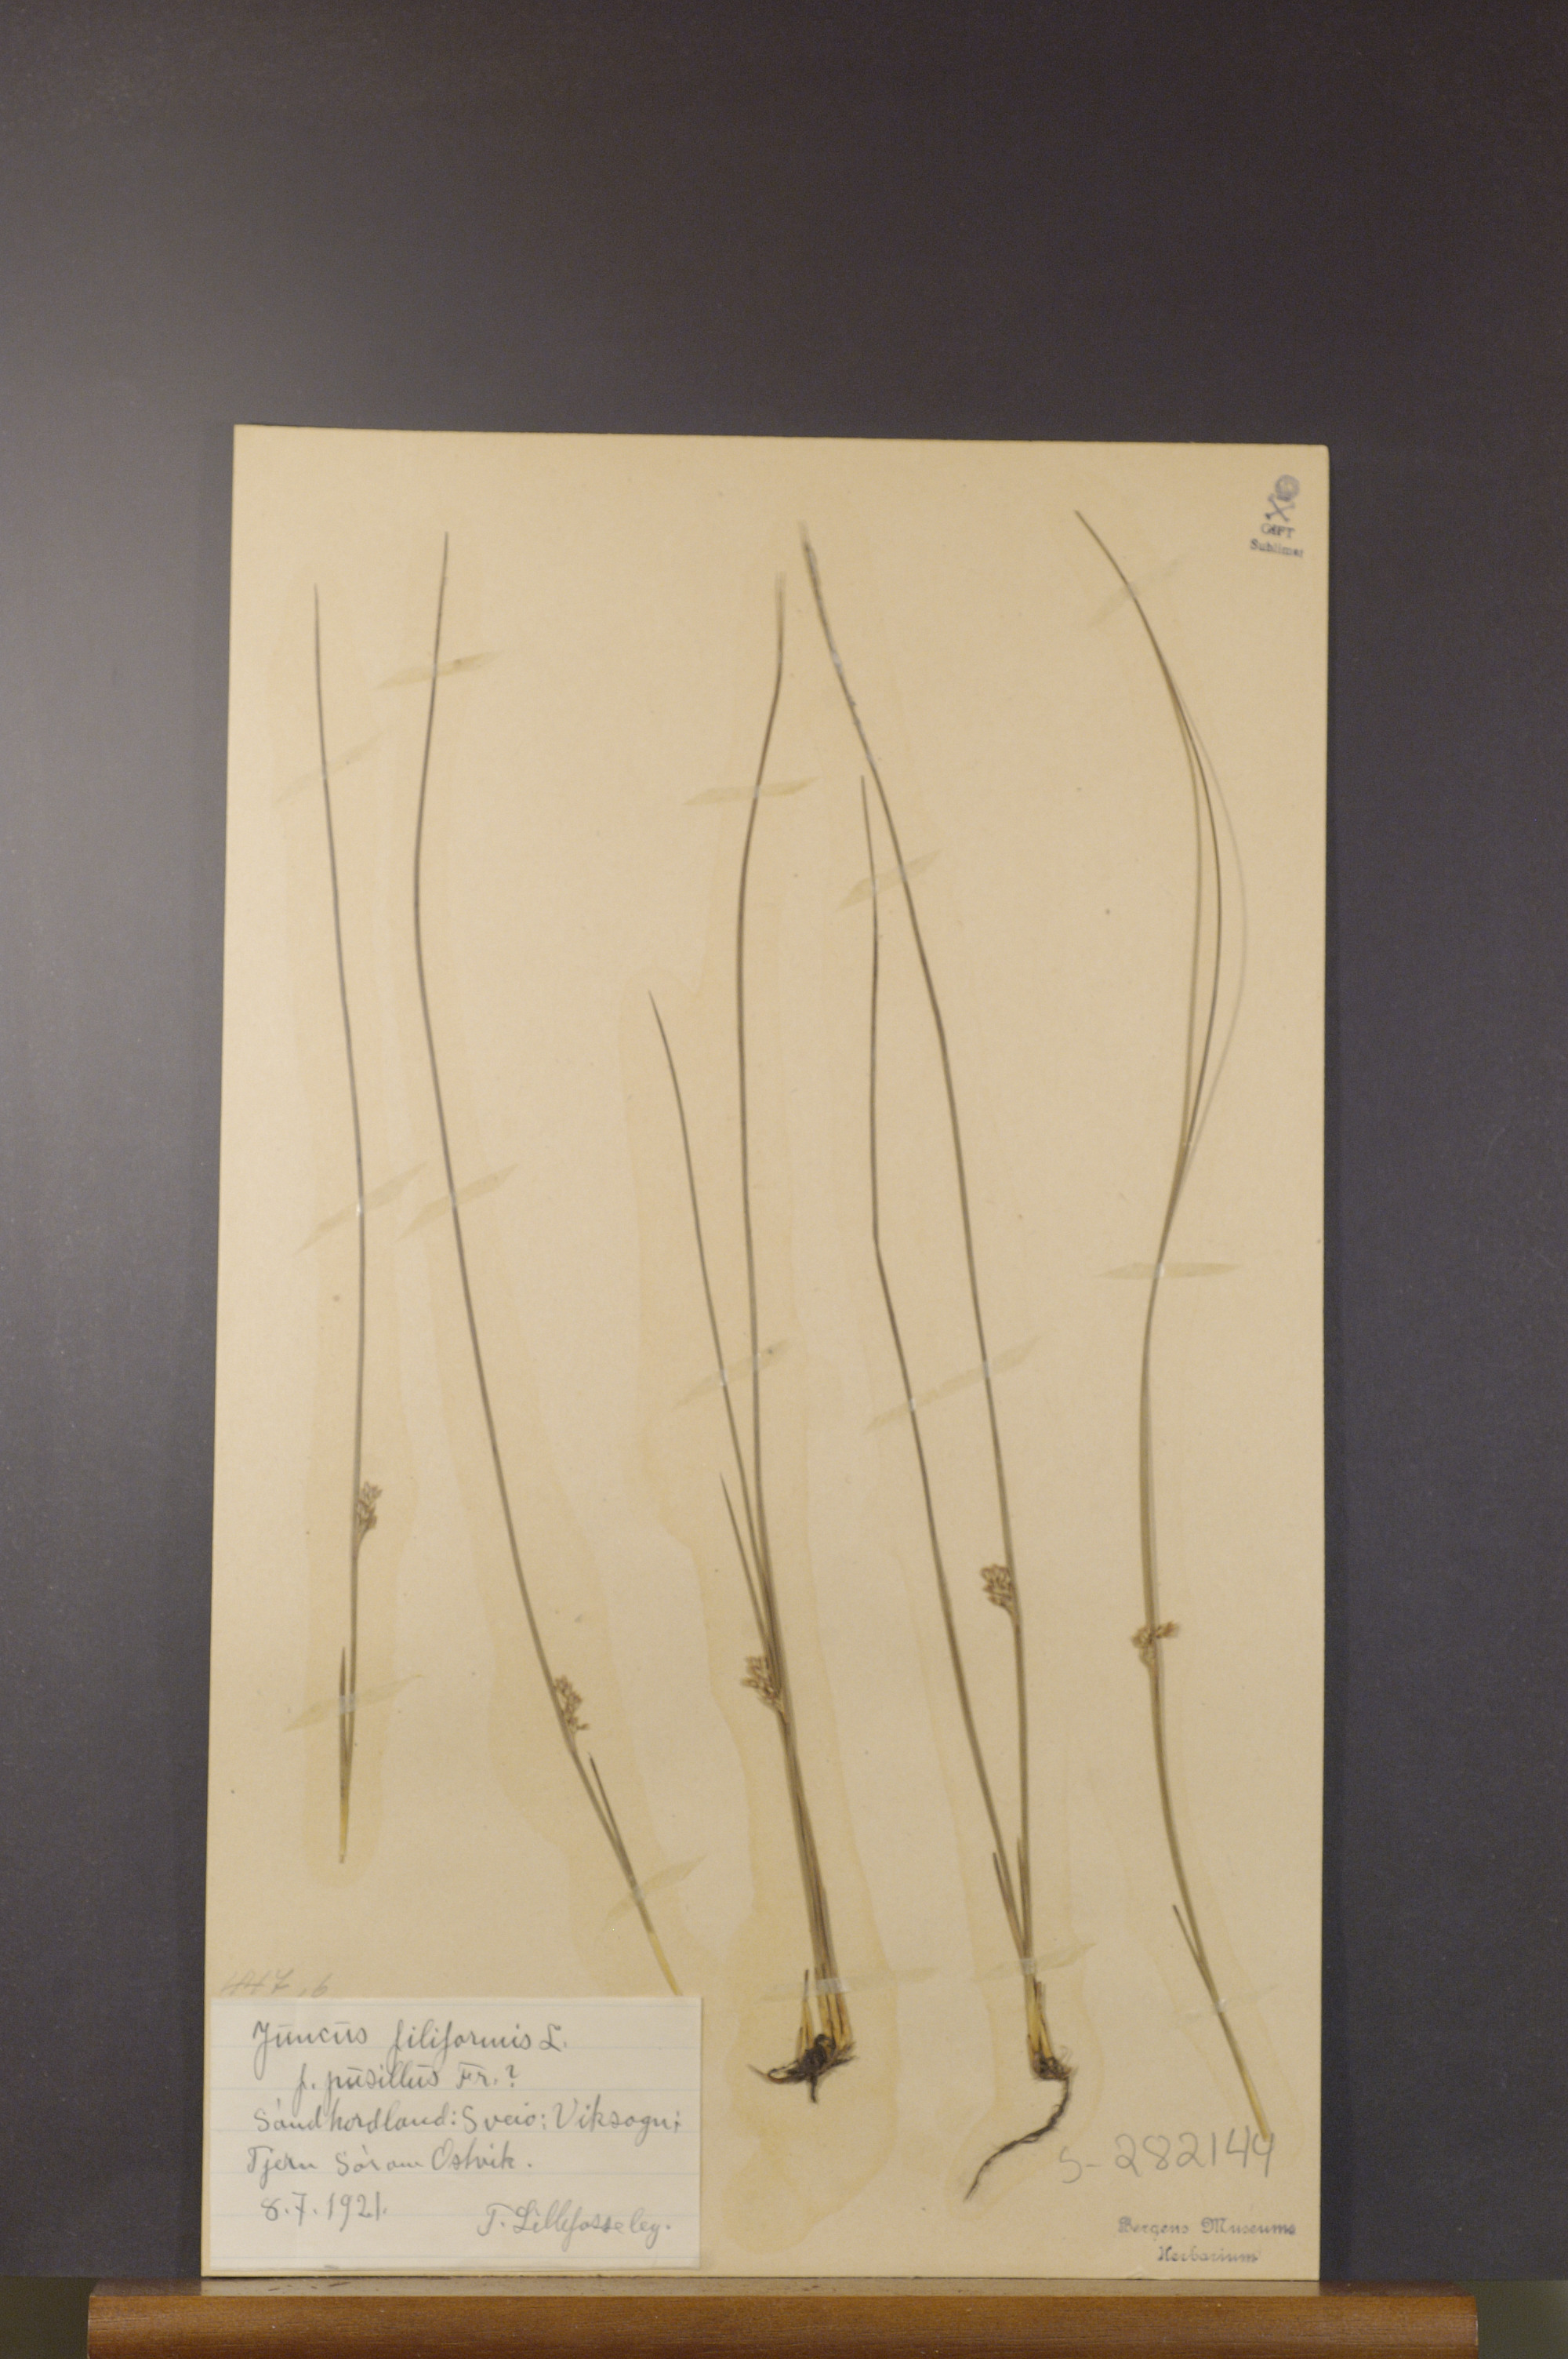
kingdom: Plantae
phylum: Tracheophyta
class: Liliopsida
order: Poales
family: Juncaceae
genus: Juncus
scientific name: Juncus filiformis
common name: Thread rush
